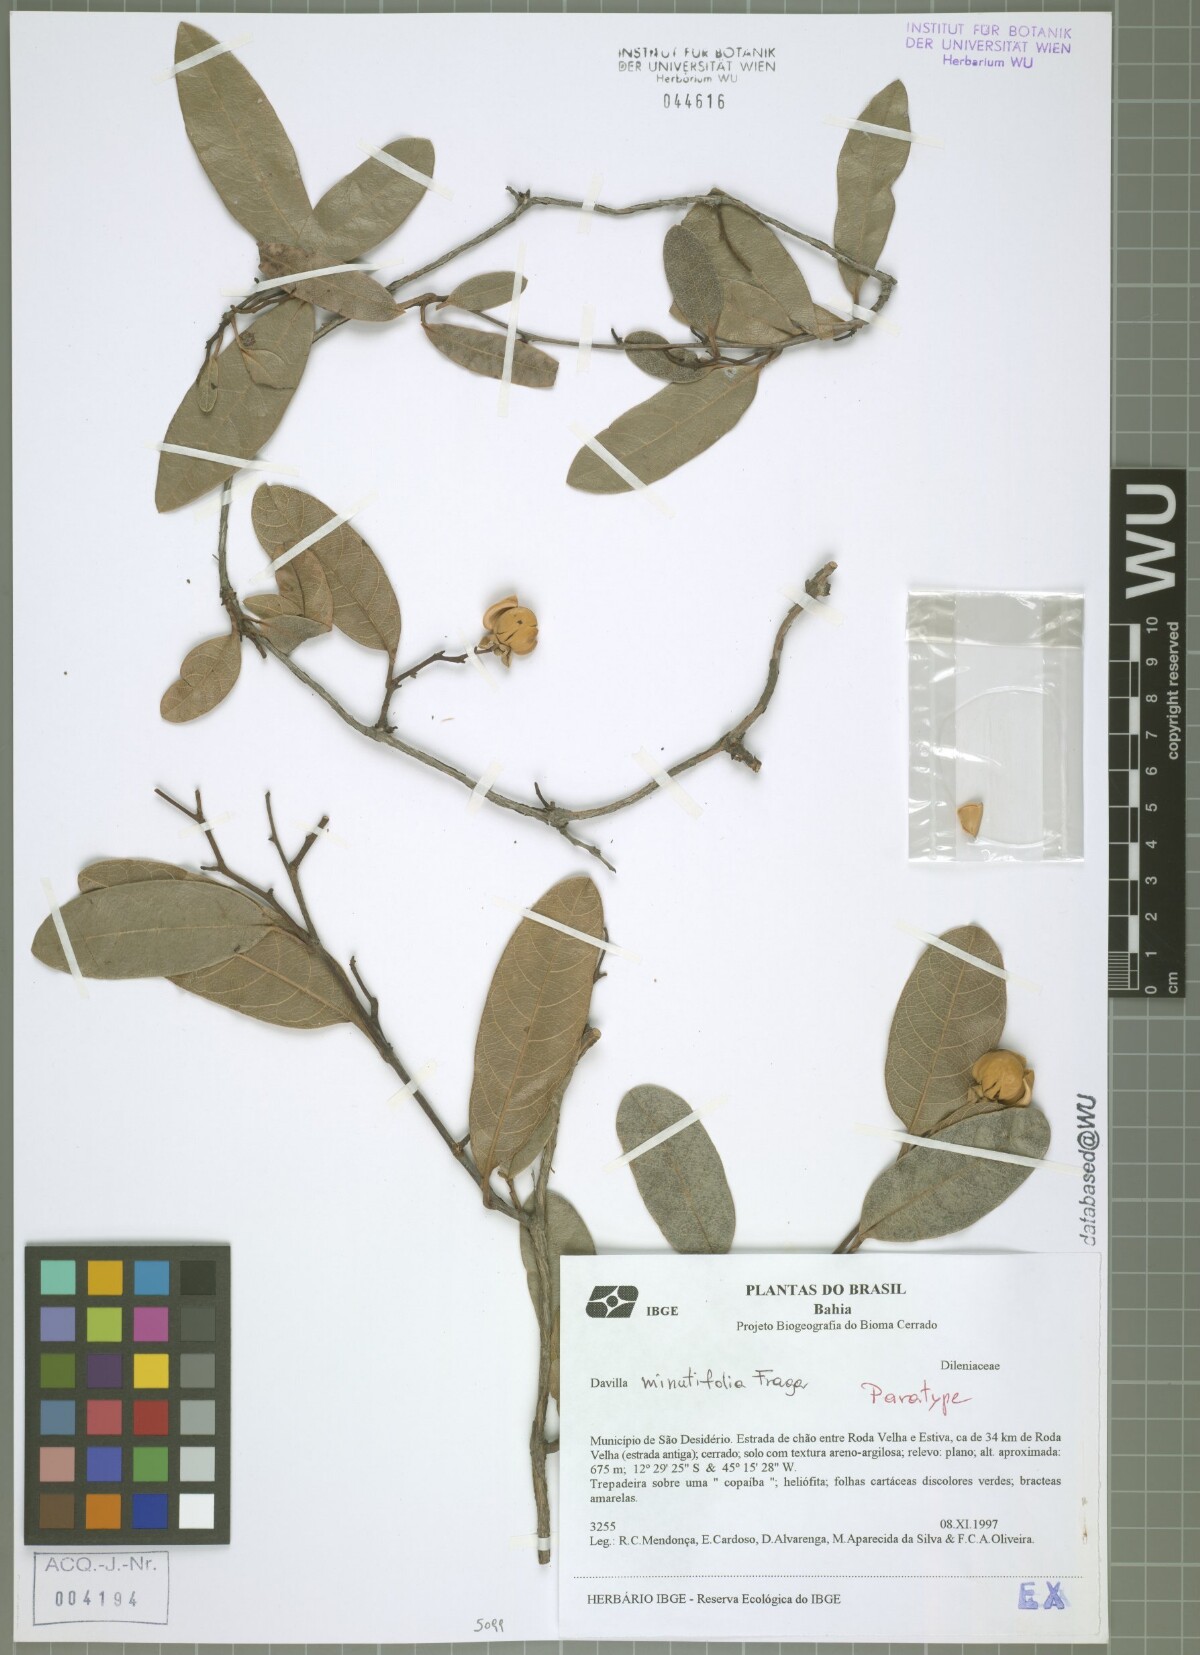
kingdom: Plantae
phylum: Tracheophyta
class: Magnoliopsida
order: Dilleniales
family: Dilleniaceae
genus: Davilla
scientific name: Davilla minutifolia
